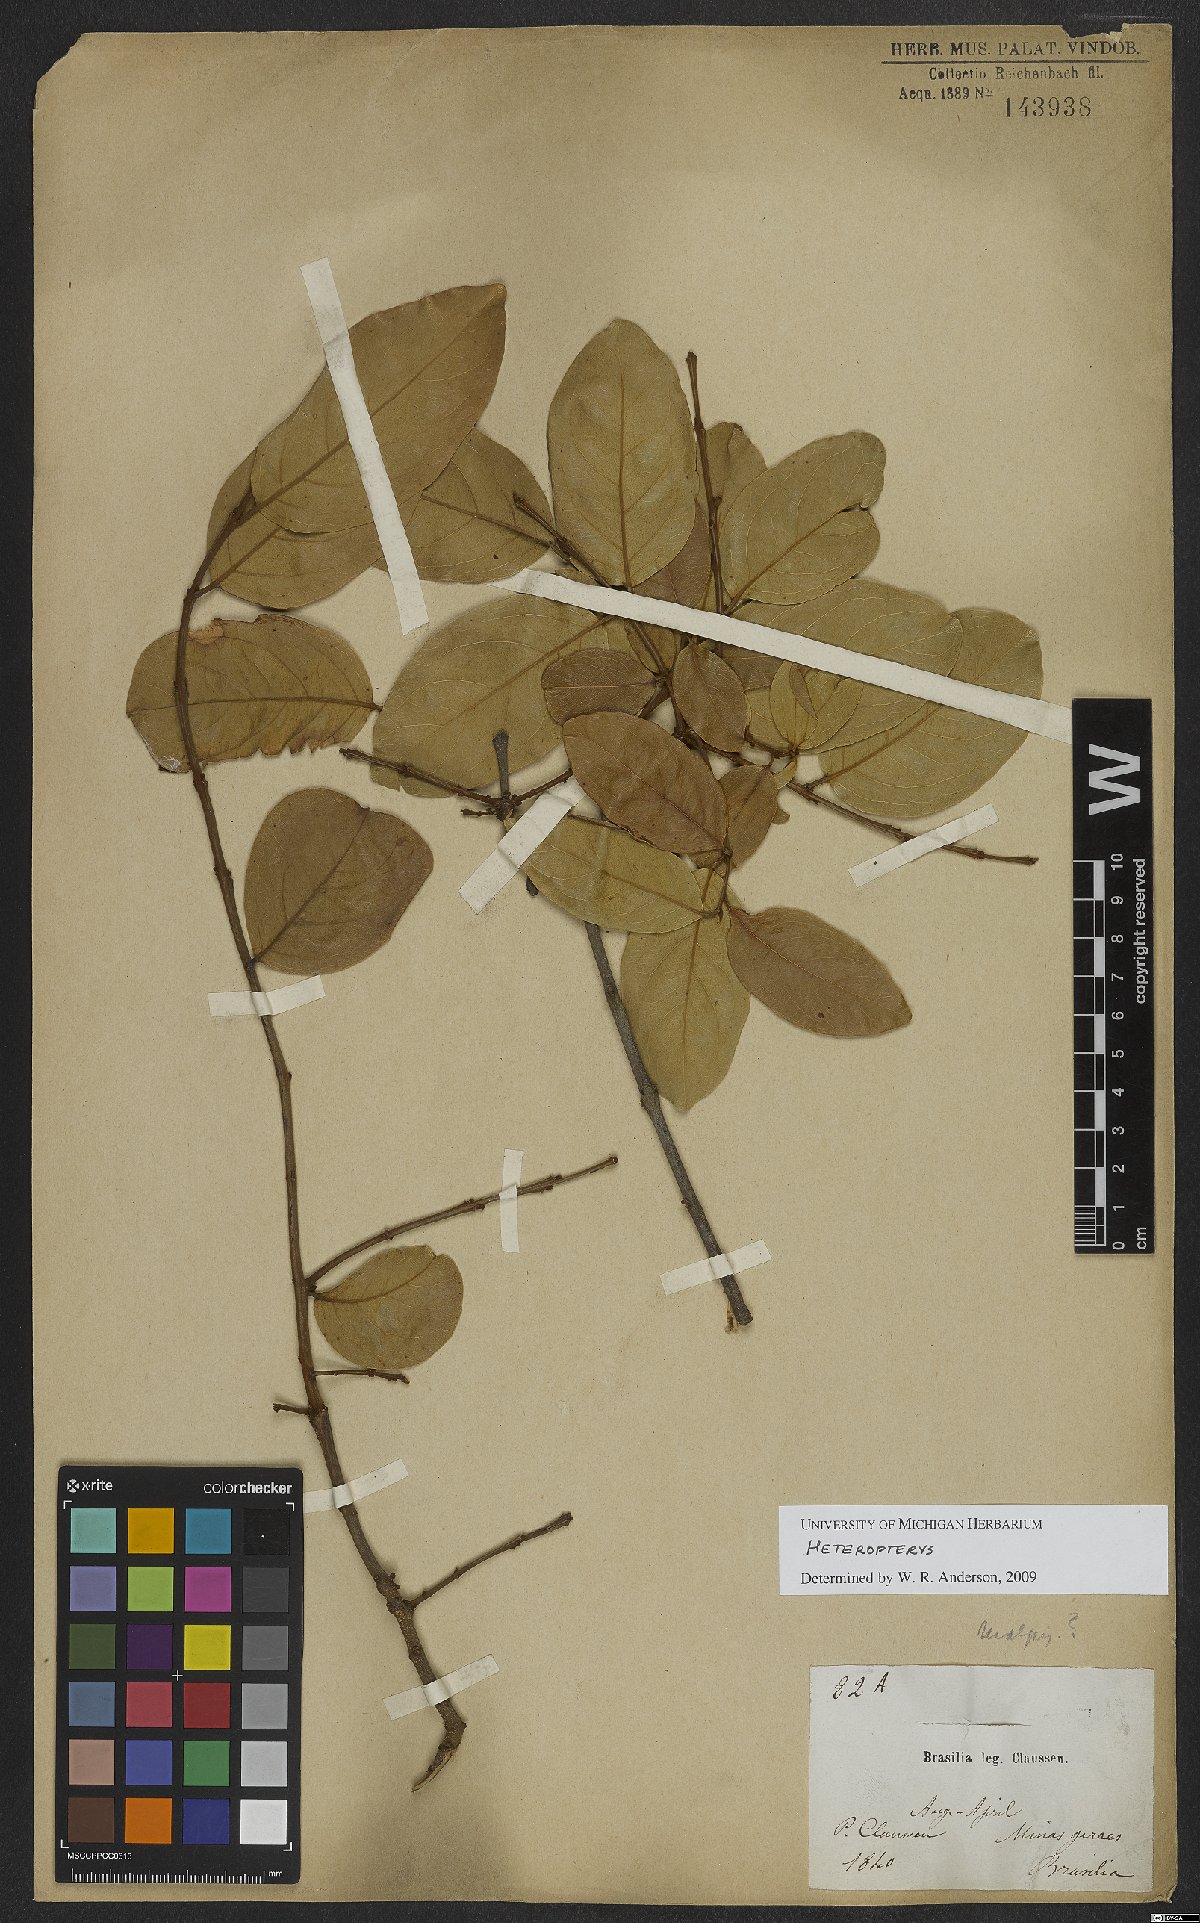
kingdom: Plantae
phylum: Tracheophyta
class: Magnoliopsida
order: Malpighiales
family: Malpighiaceae
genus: Heteropterys
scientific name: Heteropterys
